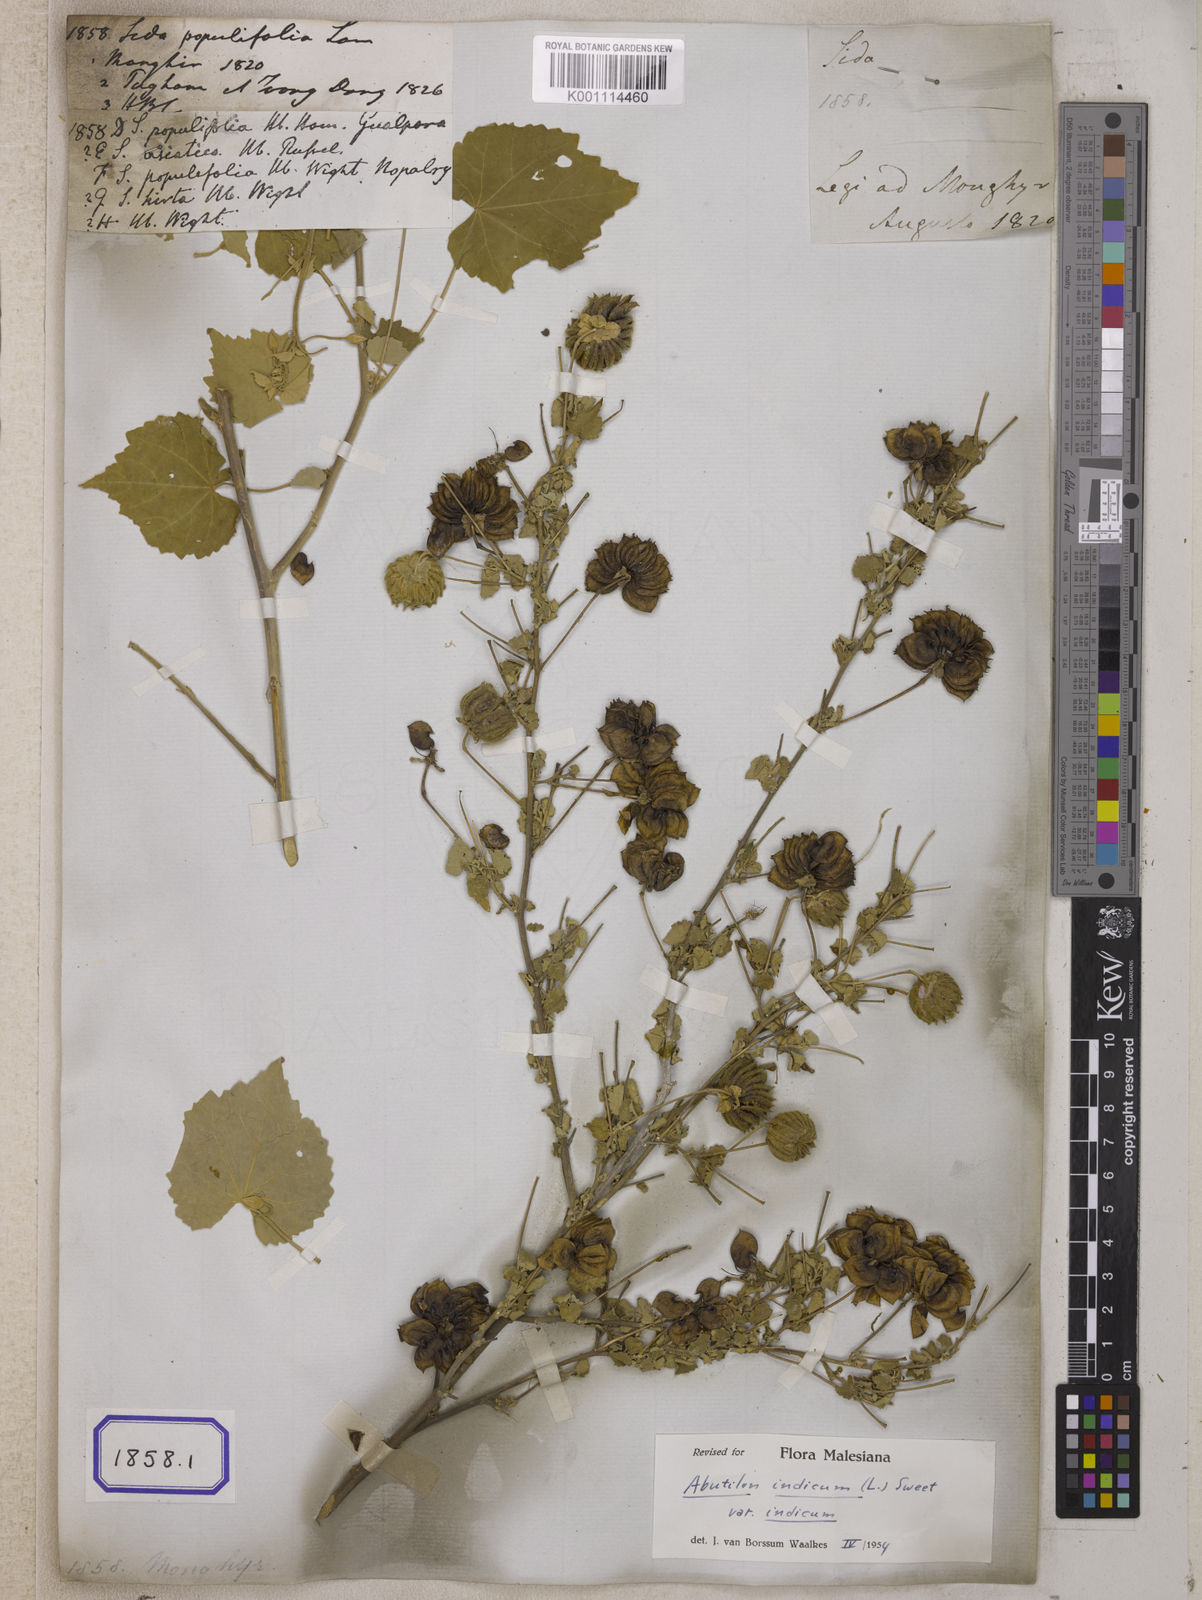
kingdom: Plantae
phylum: Tracheophyta
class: Magnoliopsida
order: Malvales
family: Malvaceae
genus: Abutilon
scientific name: Abutilon indicum
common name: Indian abutilon
